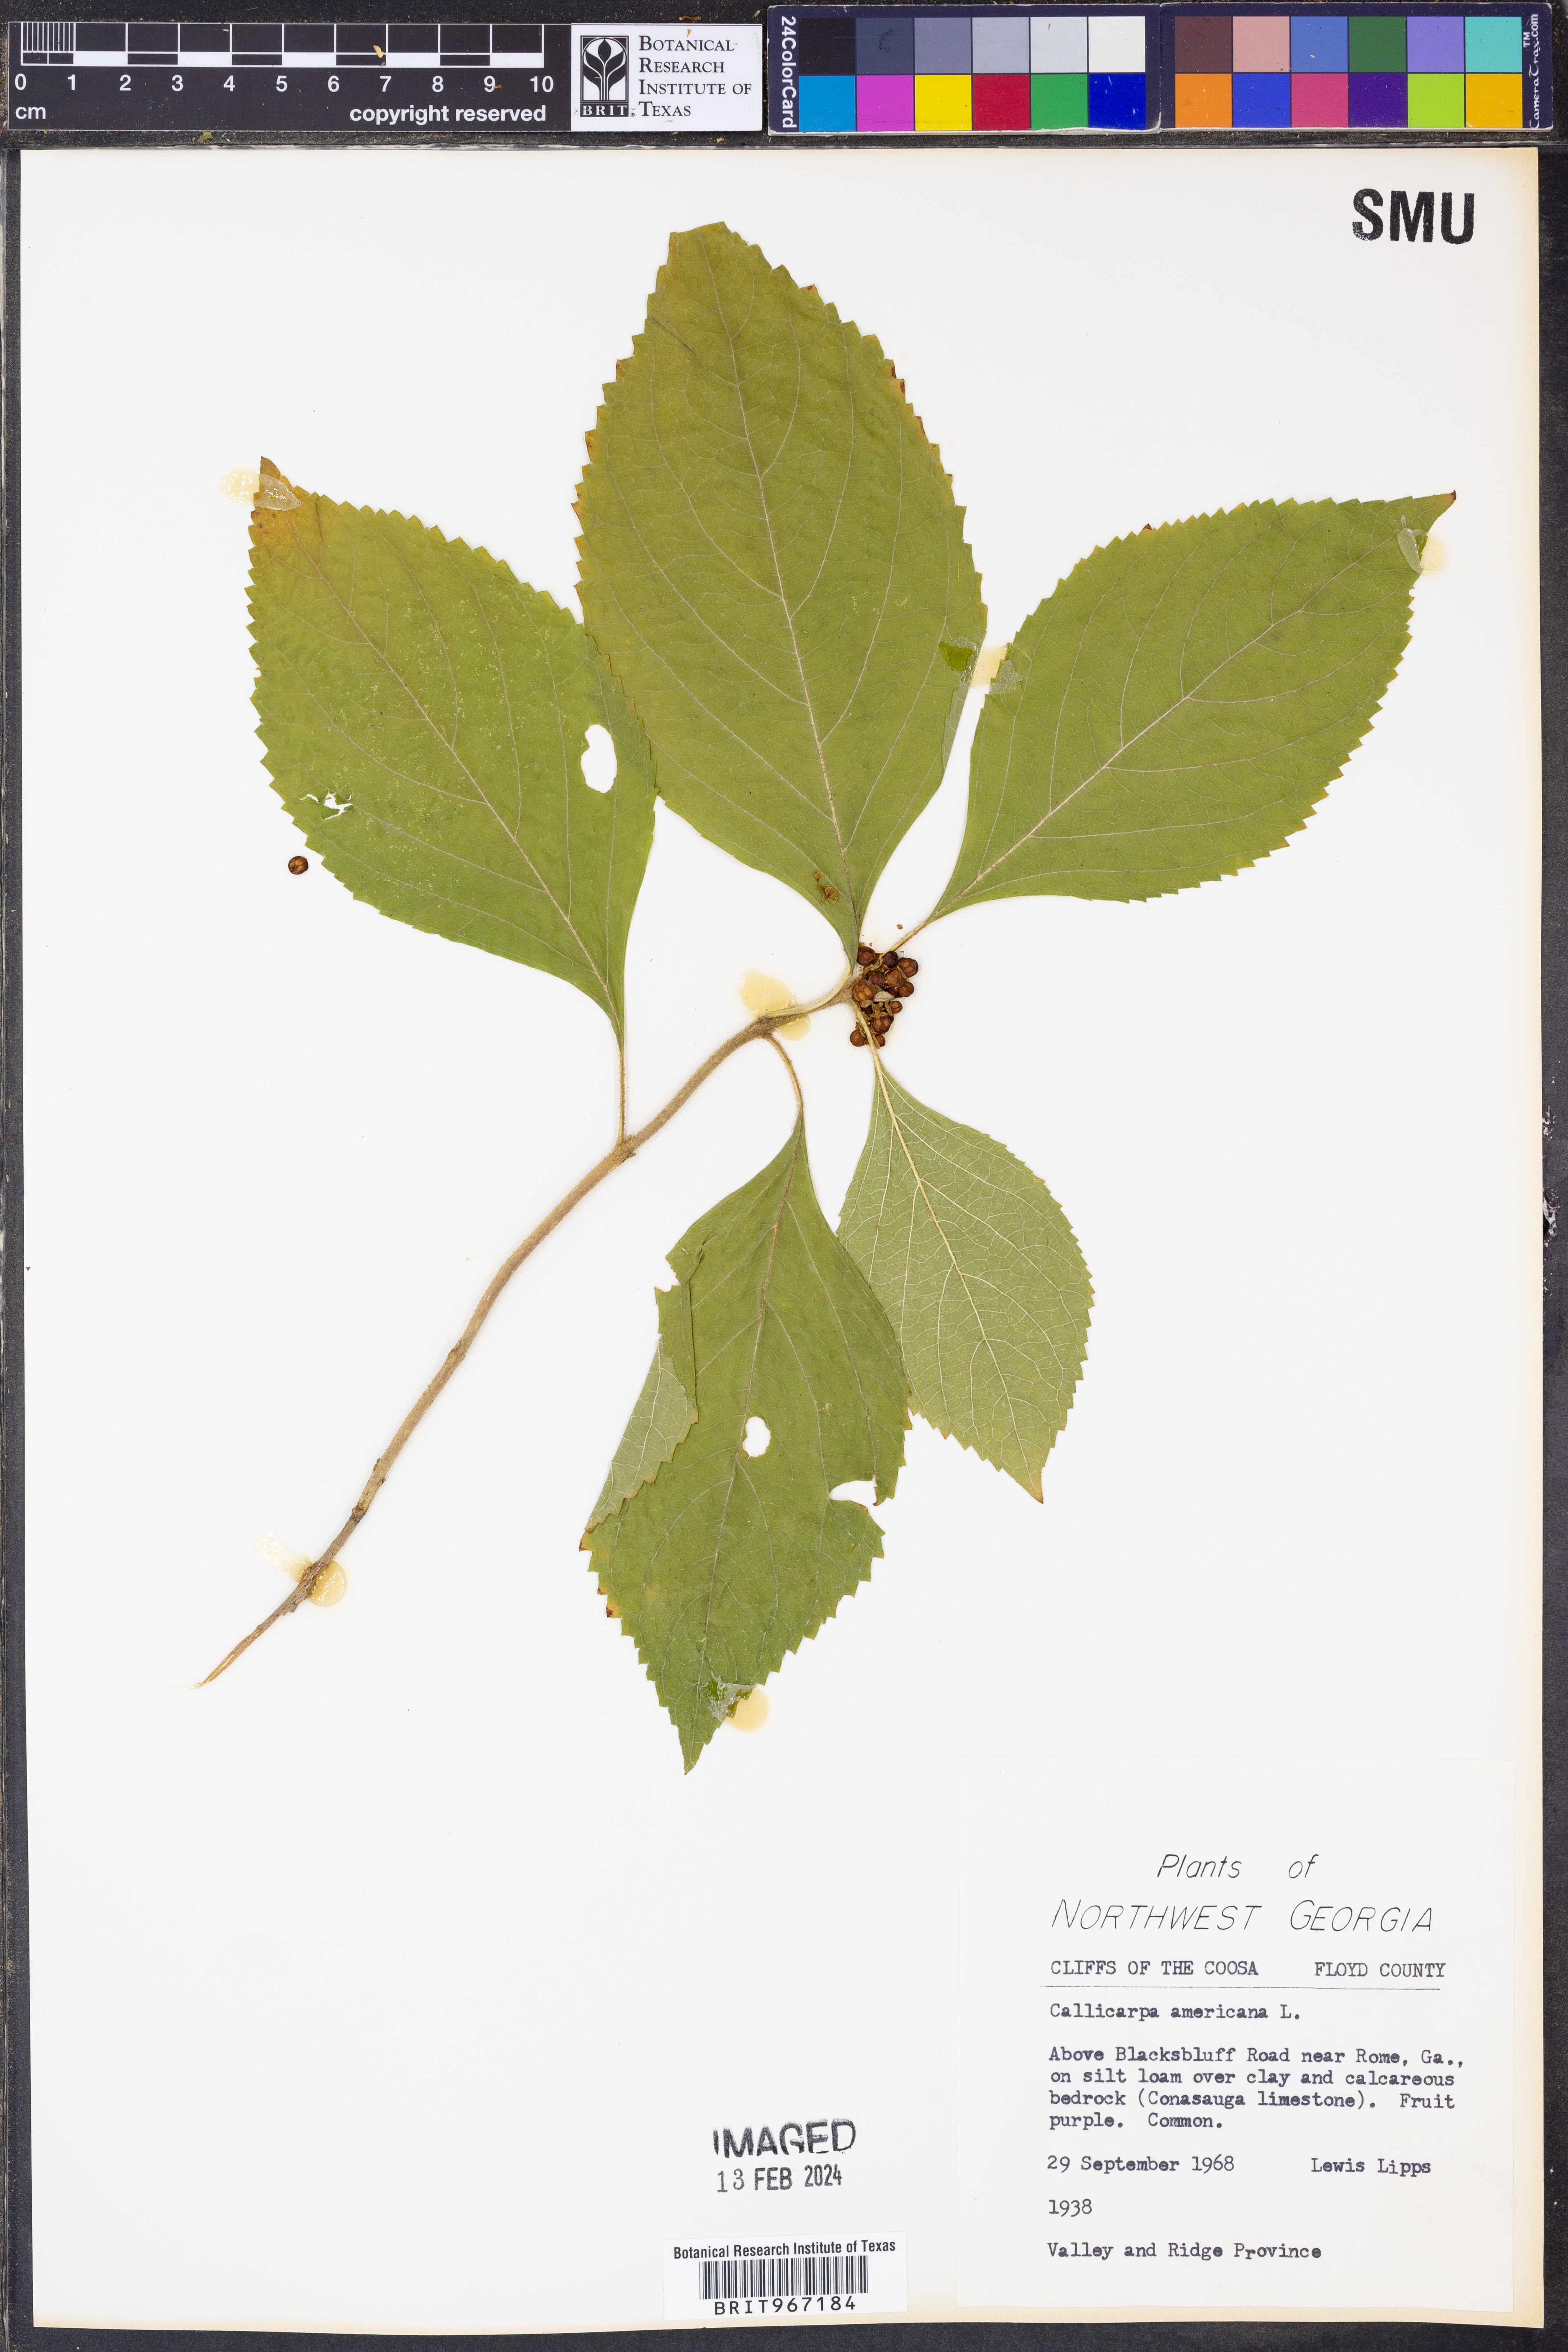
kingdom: Plantae
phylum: Tracheophyta
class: Magnoliopsida
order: Lamiales
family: Lamiaceae
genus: Callicarpa
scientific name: Callicarpa americana
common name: American beautyberry
